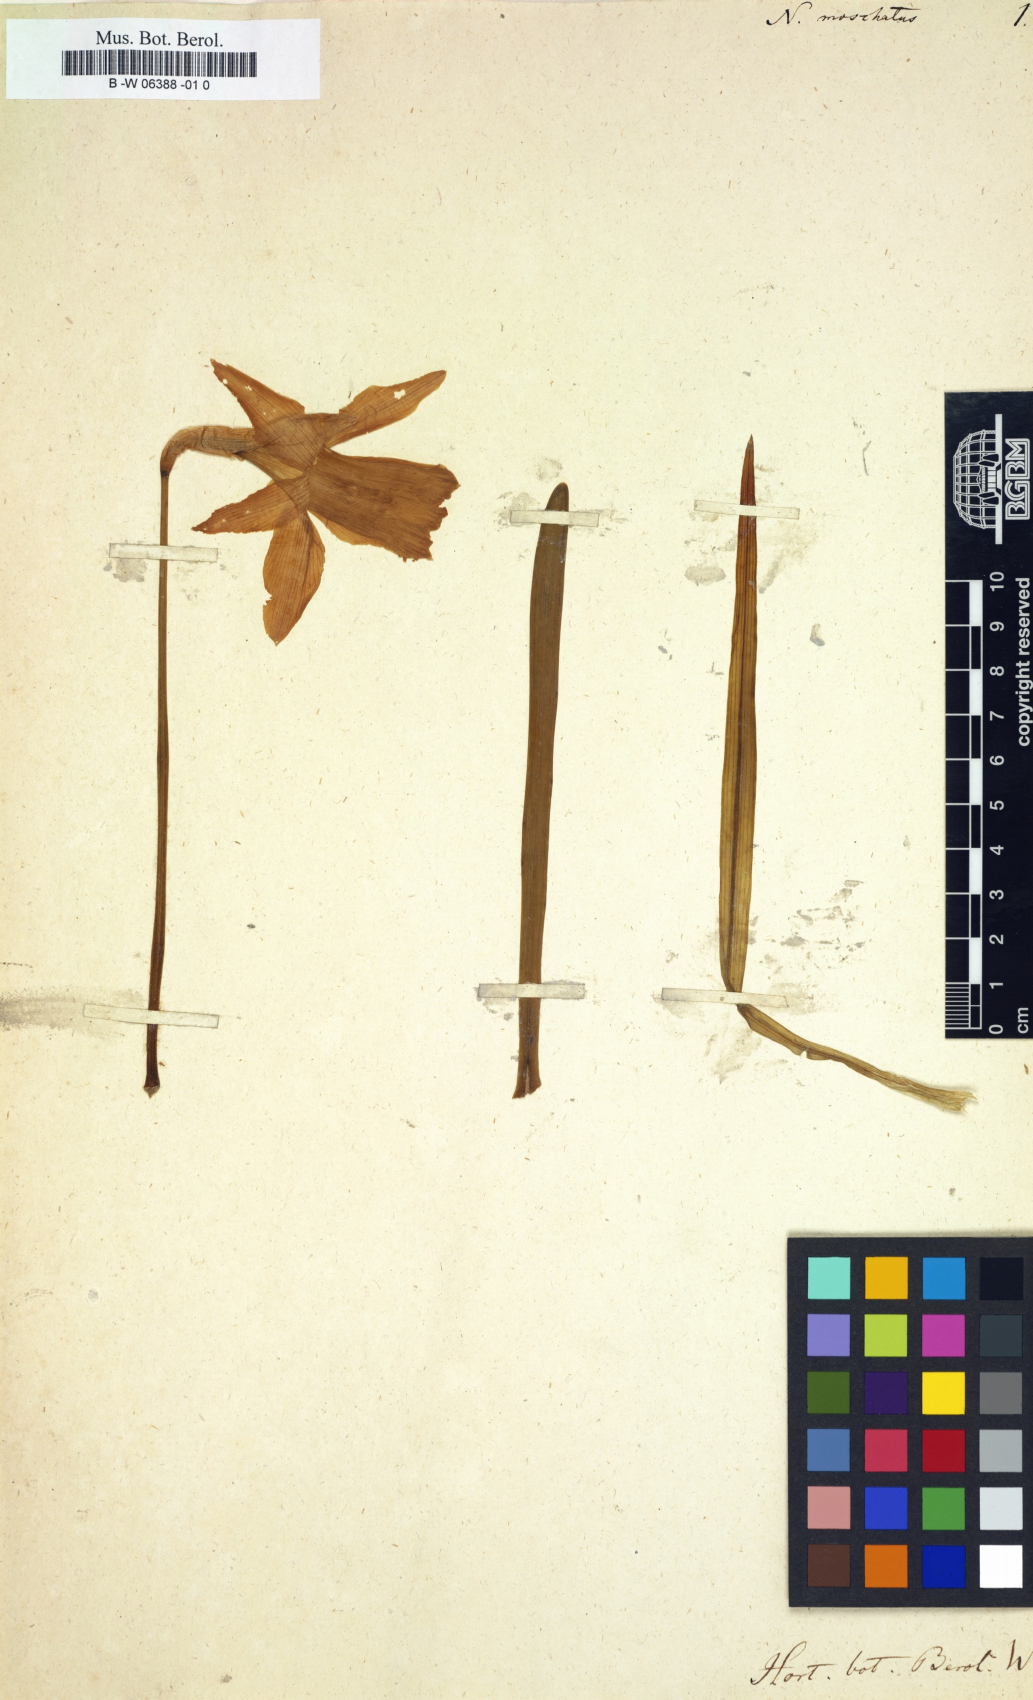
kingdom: Plantae
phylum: Tracheophyta
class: Liliopsida
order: Asparagales
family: Amaryllidaceae
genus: Narcissus
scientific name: Narcissus moschatus
